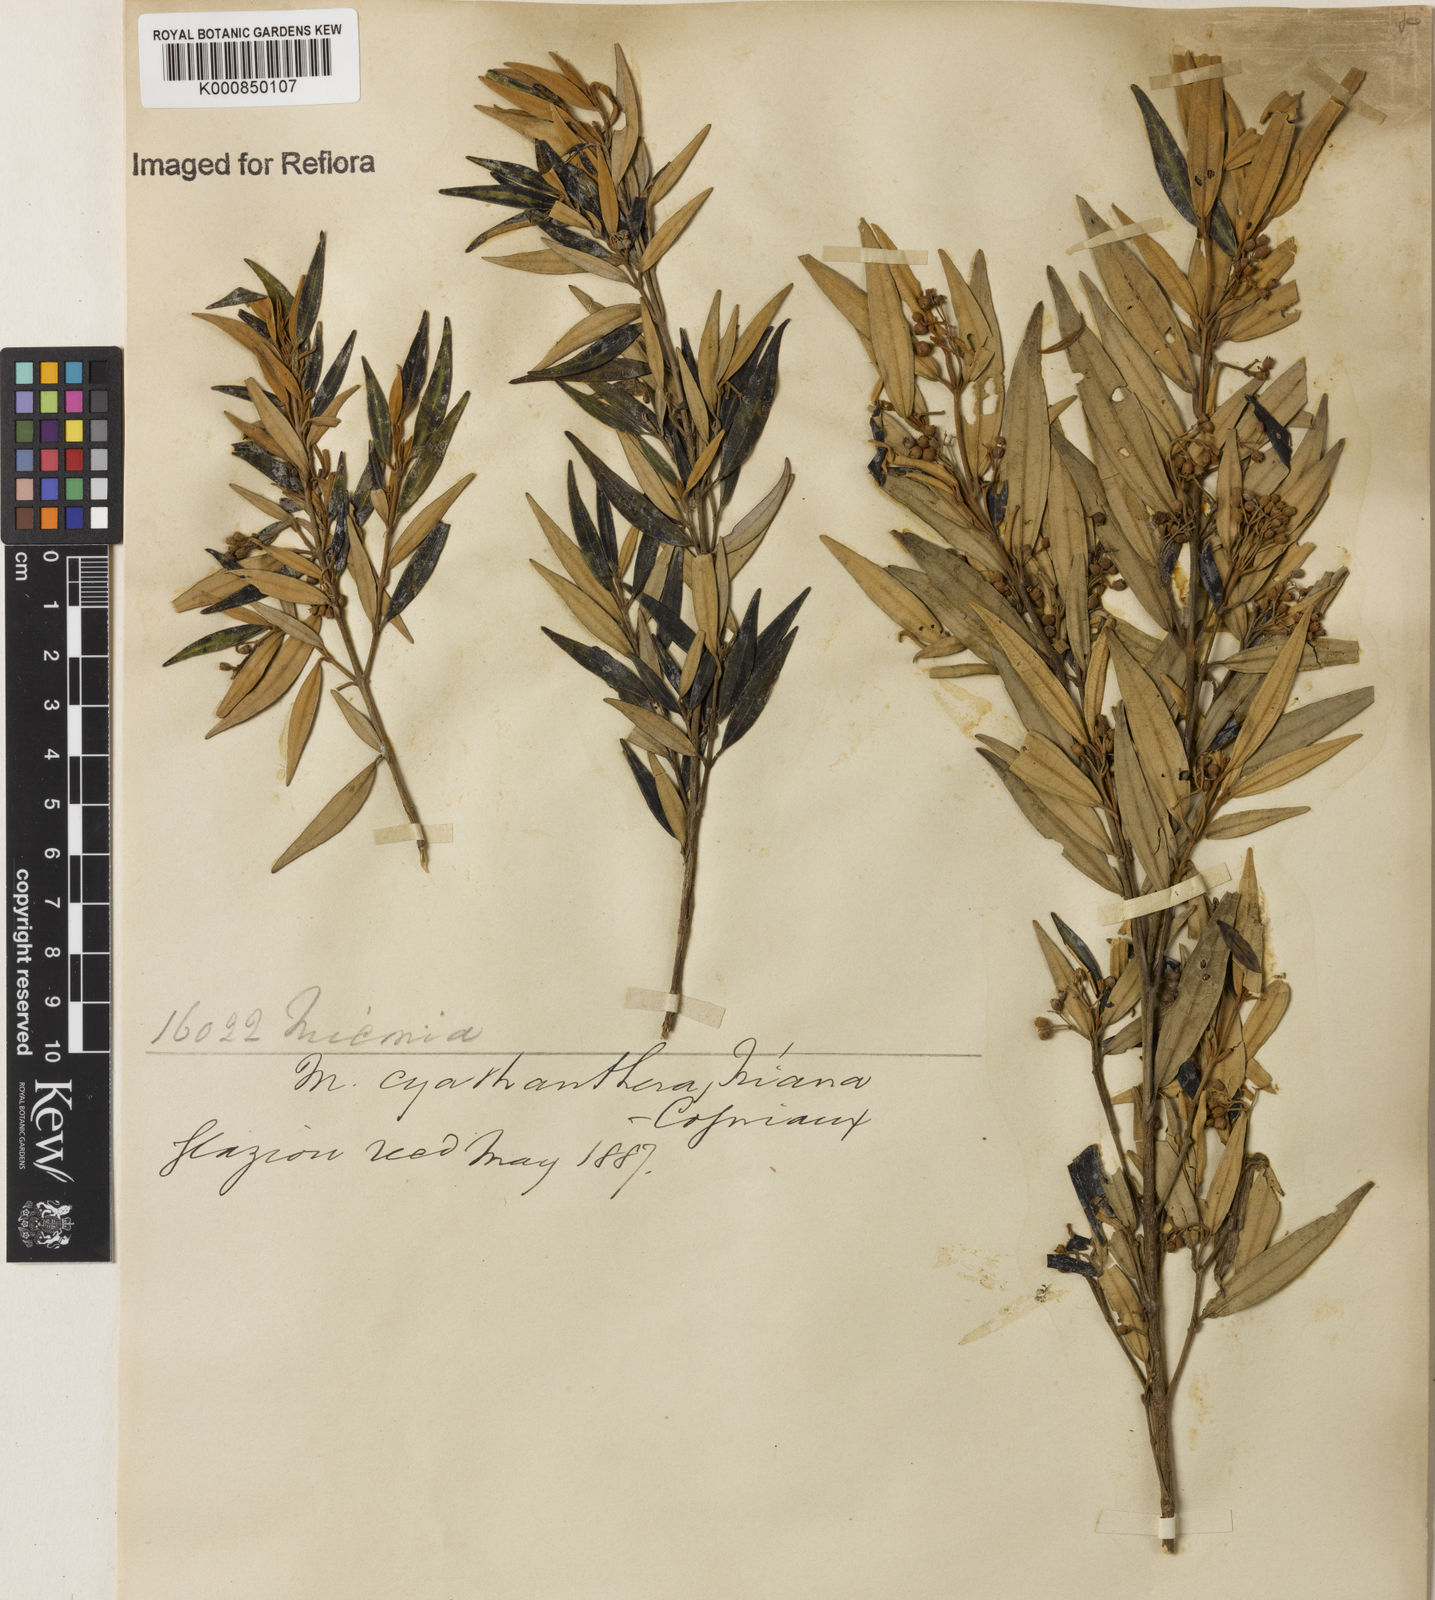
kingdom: Plantae
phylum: Tracheophyta
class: Magnoliopsida
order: Myrtales
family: Melastomataceae
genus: Miconia
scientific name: Miconia cyathanthera
